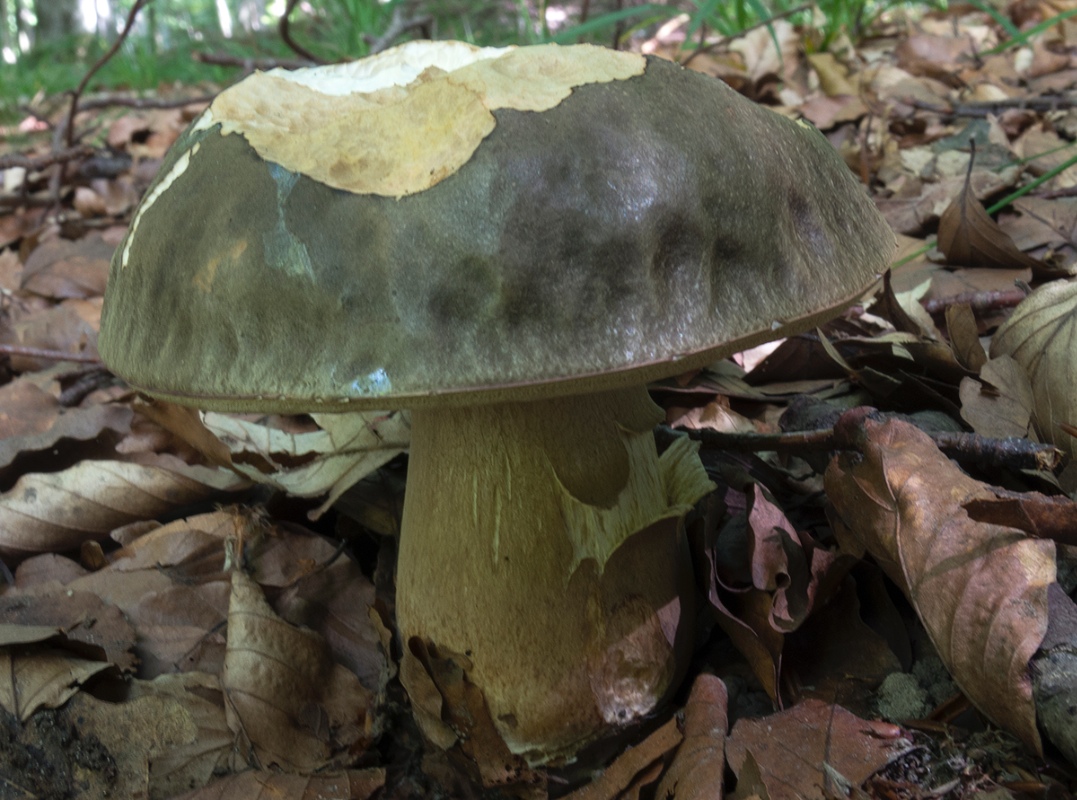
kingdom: Fungi
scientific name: Fungi
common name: bronze-rørhat
